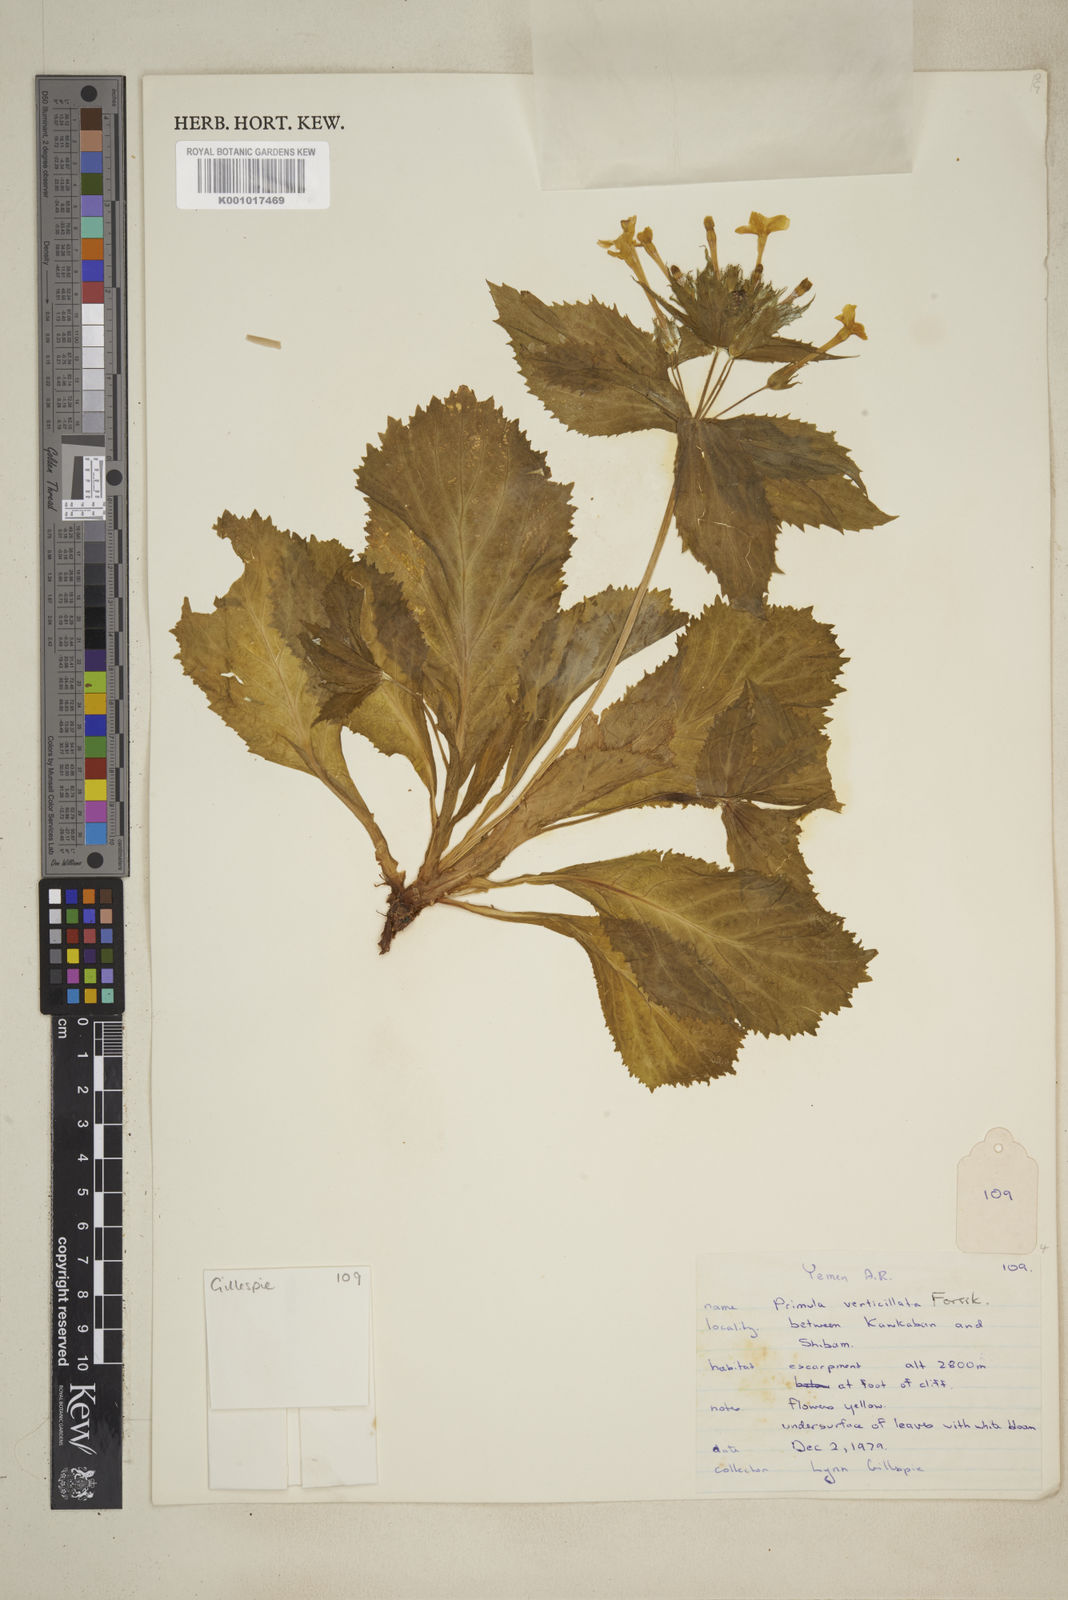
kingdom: Plantae
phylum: Tracheophyta
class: Magnoliopsida
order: Ericales
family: Primulaceae
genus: Evotrochis
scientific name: Evotrochis verticillata
